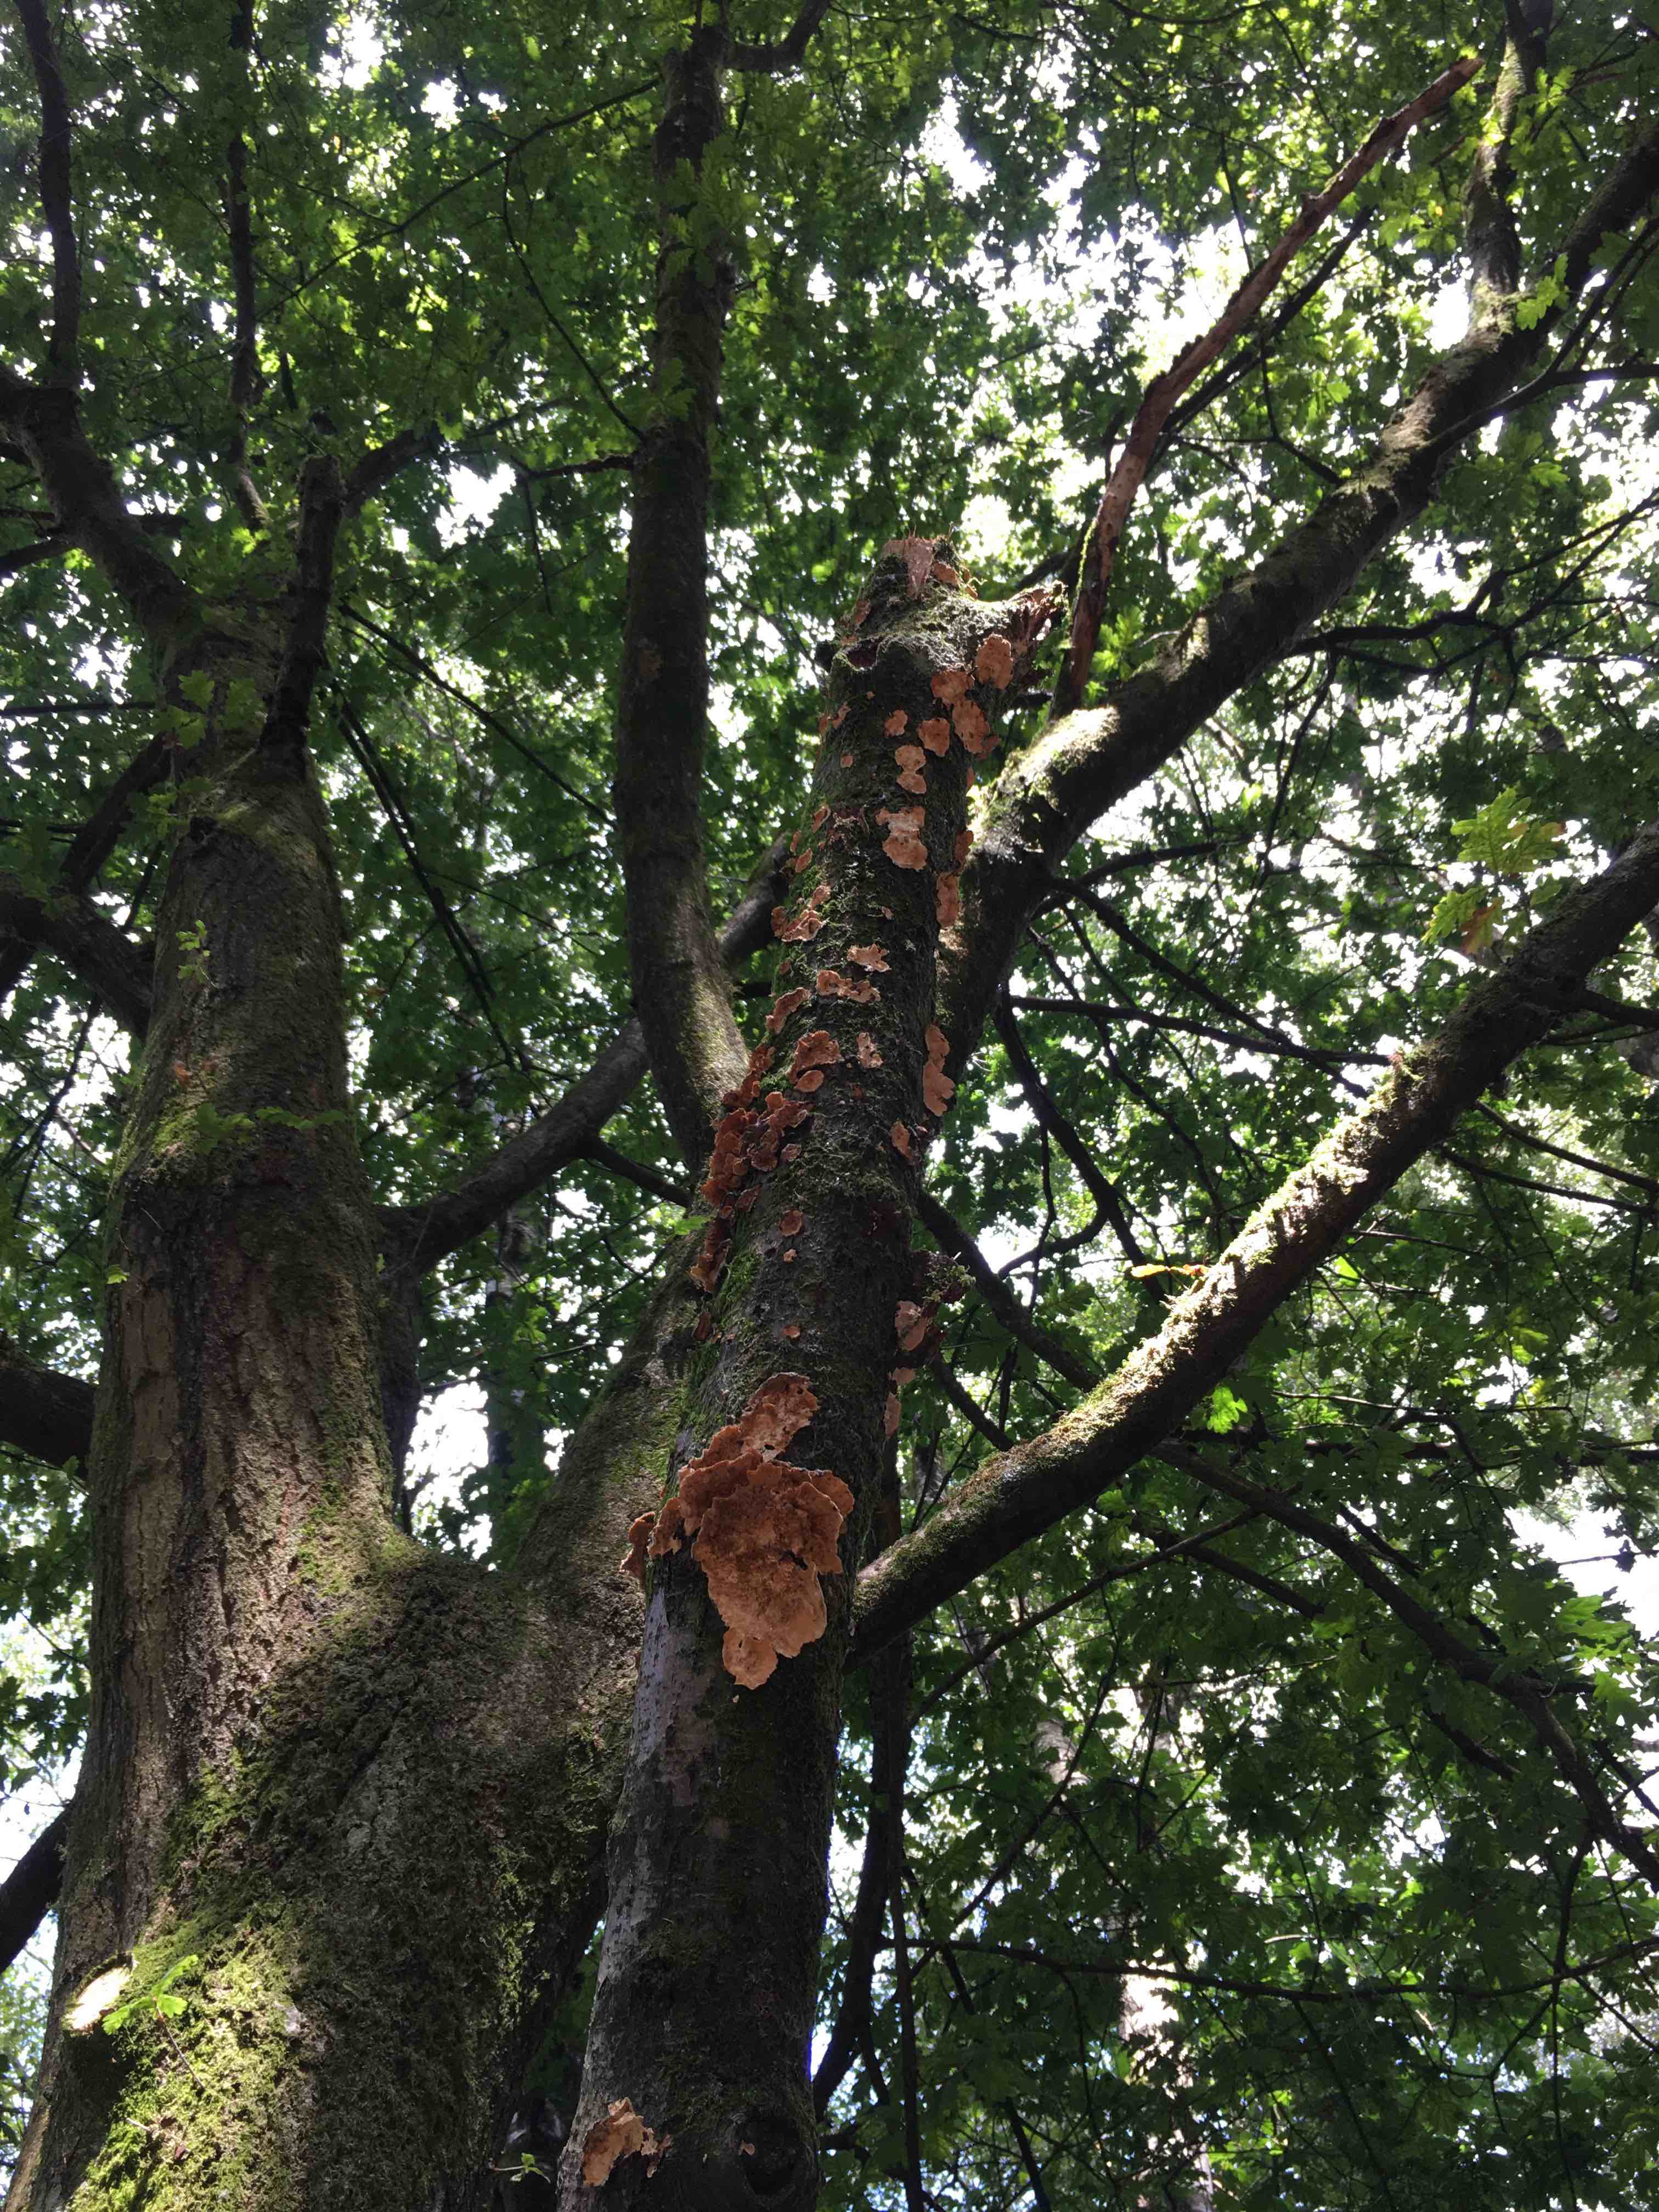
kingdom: Fungi
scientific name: Fungi
